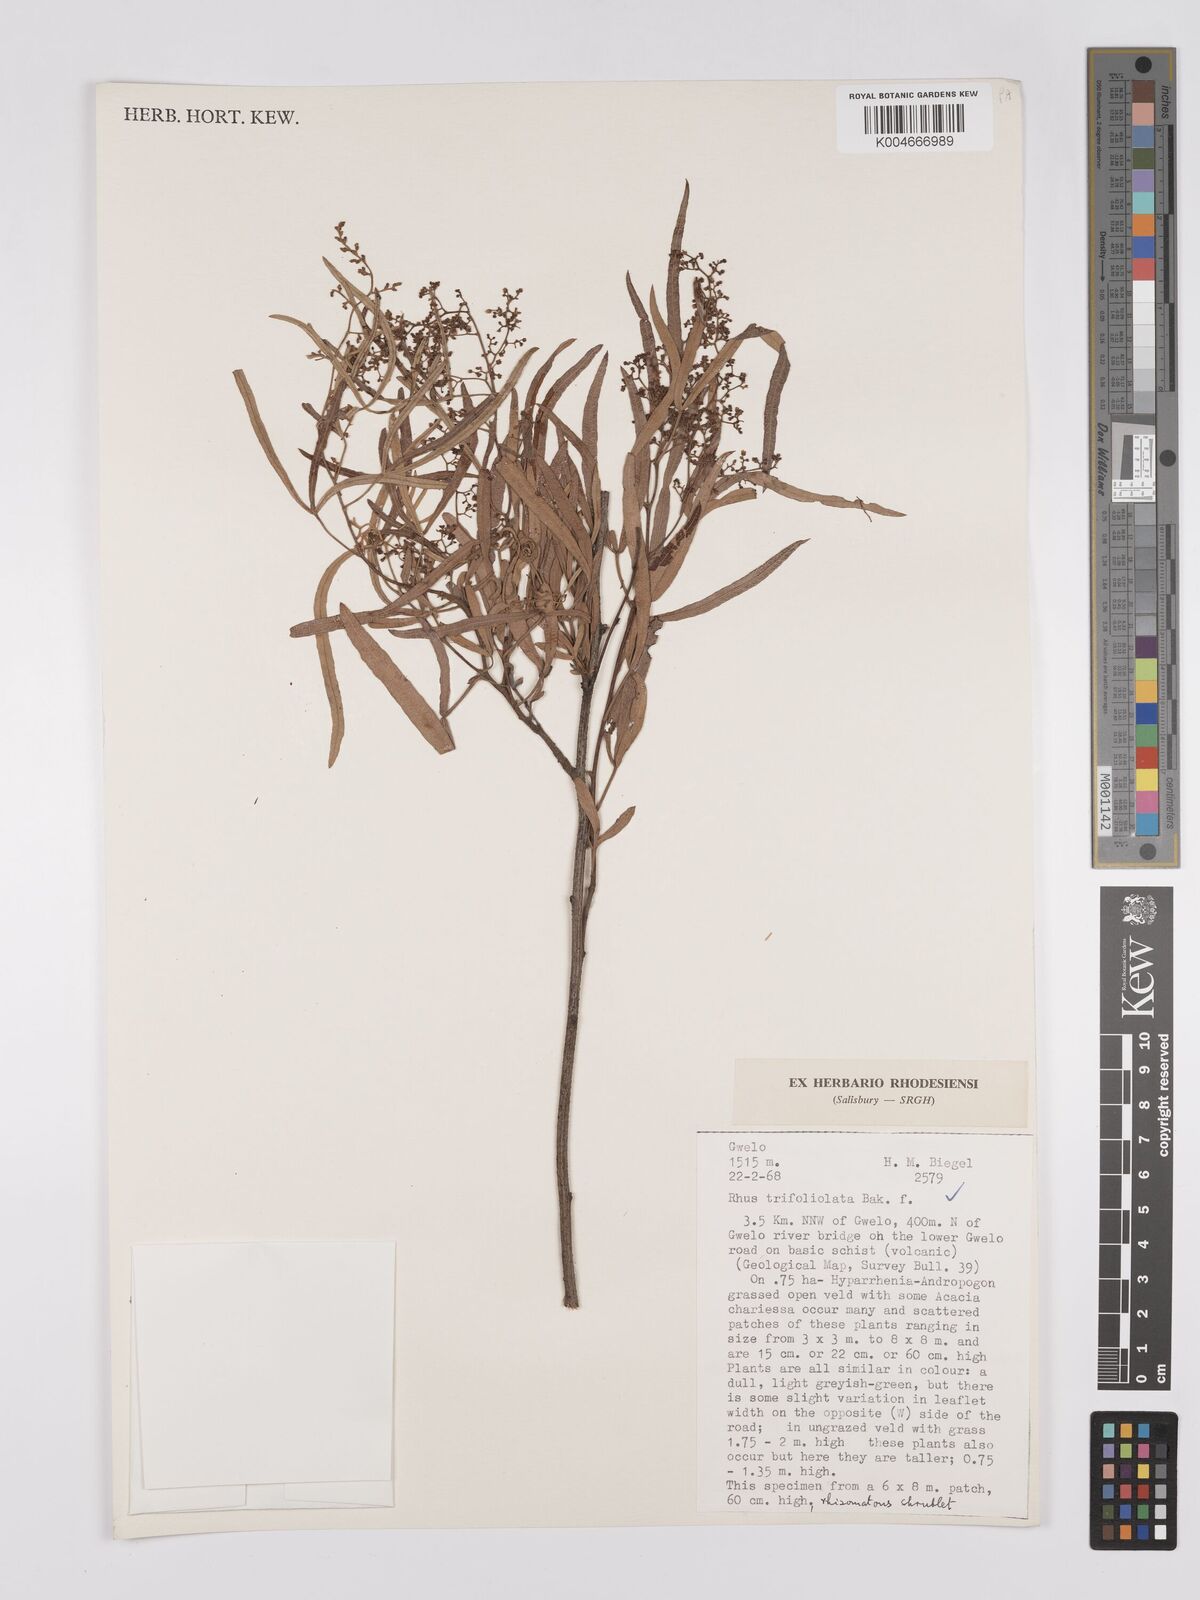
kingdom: Plantae
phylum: Tracheophyta
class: Magnoliopsida
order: Sapindales
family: Anacardiaceae
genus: Rhus
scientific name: Rhus
